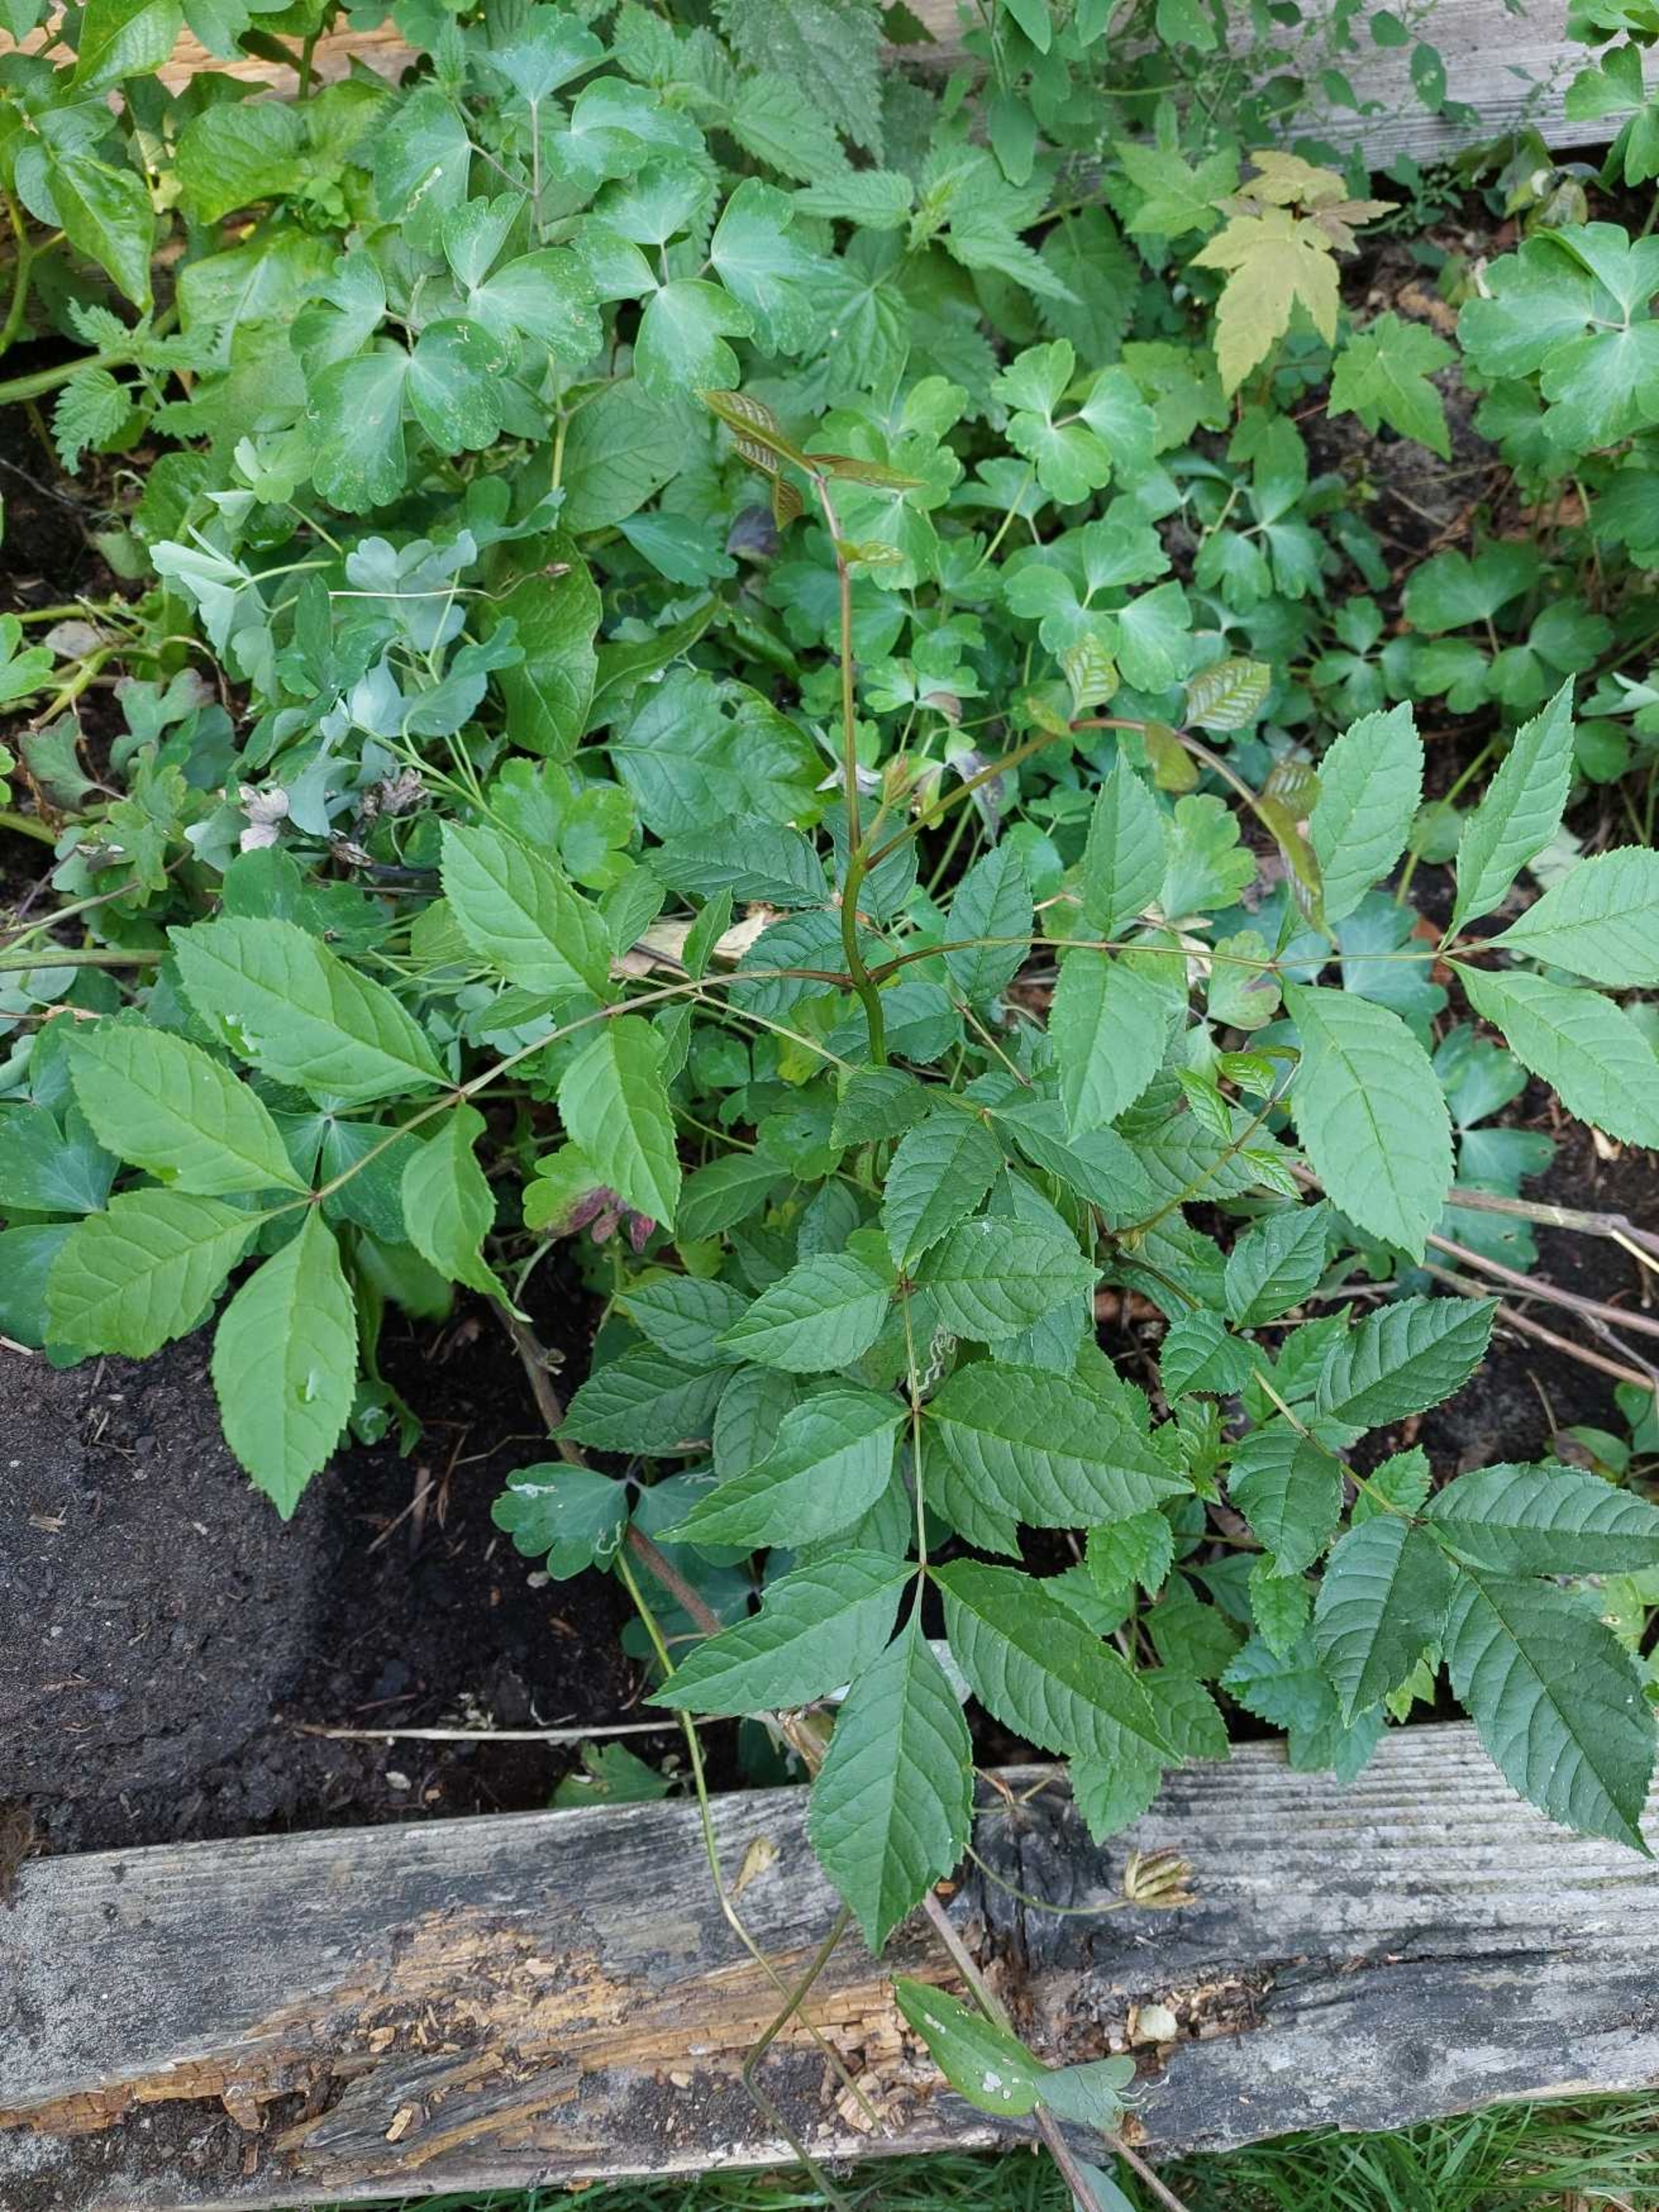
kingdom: Plantae
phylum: Tracheophyta
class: Magnoliopsida
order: Lamiales
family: Oleaceae
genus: Fraxinus
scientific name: Fraxinus excelsior
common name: Ask
